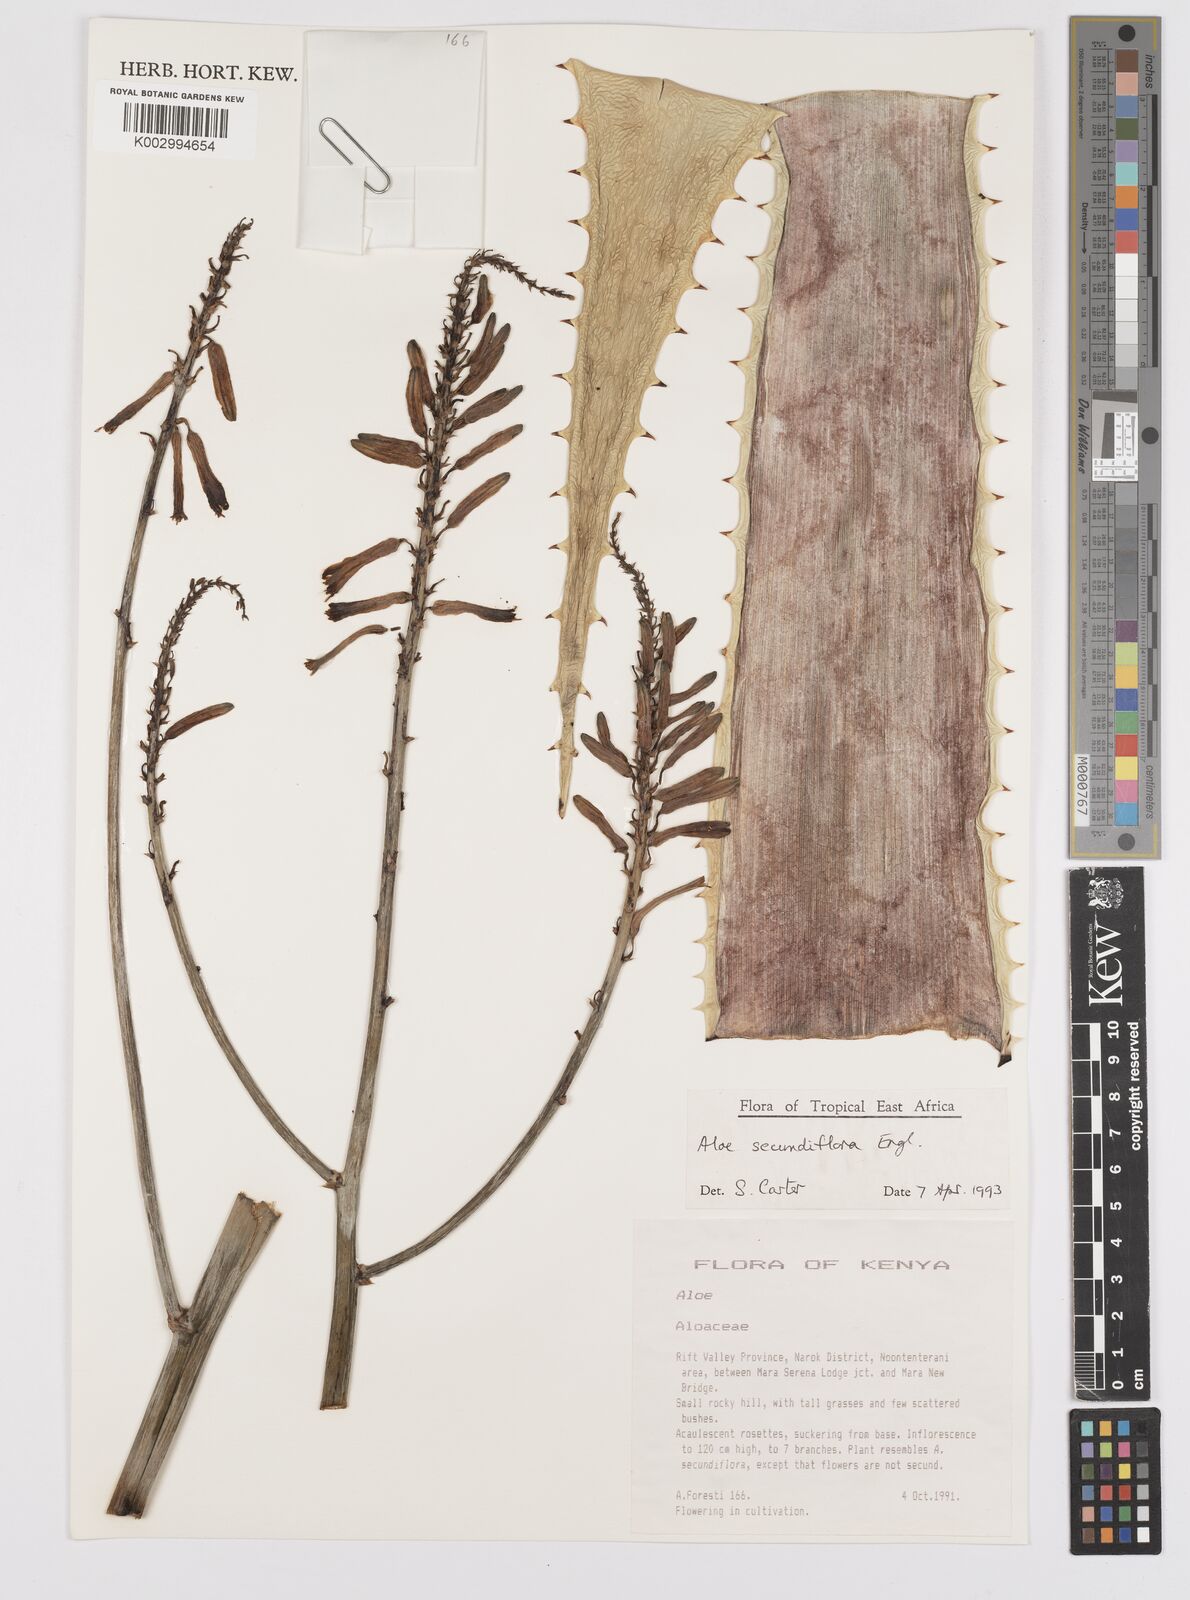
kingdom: Plantae
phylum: Tracheophyta
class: Liliopsida
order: Asparagales
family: Asphodelaceae
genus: Aloe
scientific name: Aloe secundiflora
